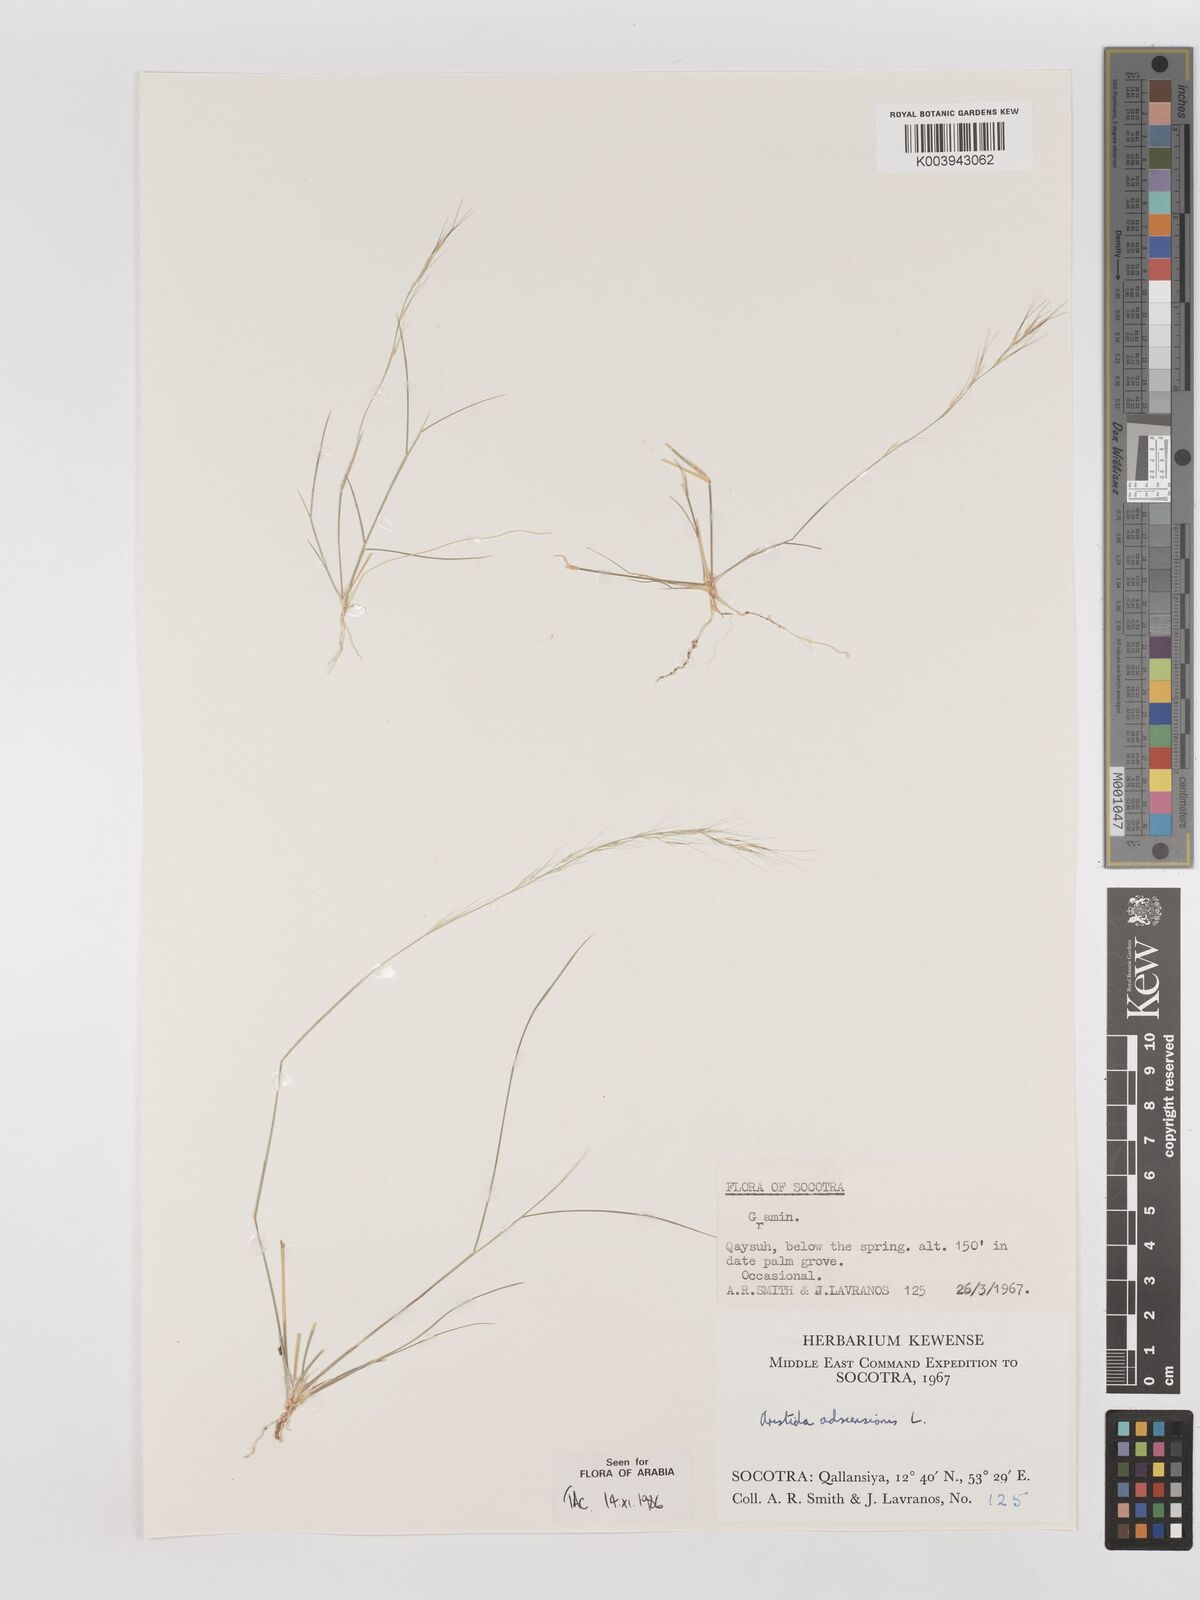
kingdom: Plantae
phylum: Tracheophyta
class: Liliopsida
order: Poales
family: Poaceae
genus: Aristida
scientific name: Aristida adscensionis
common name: Sixweeks threeawn
